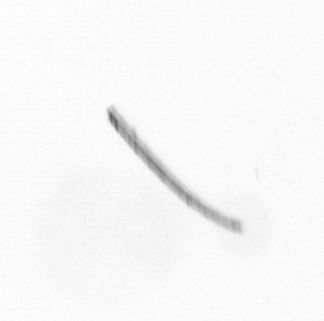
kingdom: Chromista
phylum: Ochrophyta
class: Bacillariophyceae
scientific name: Bacillariophyceae
